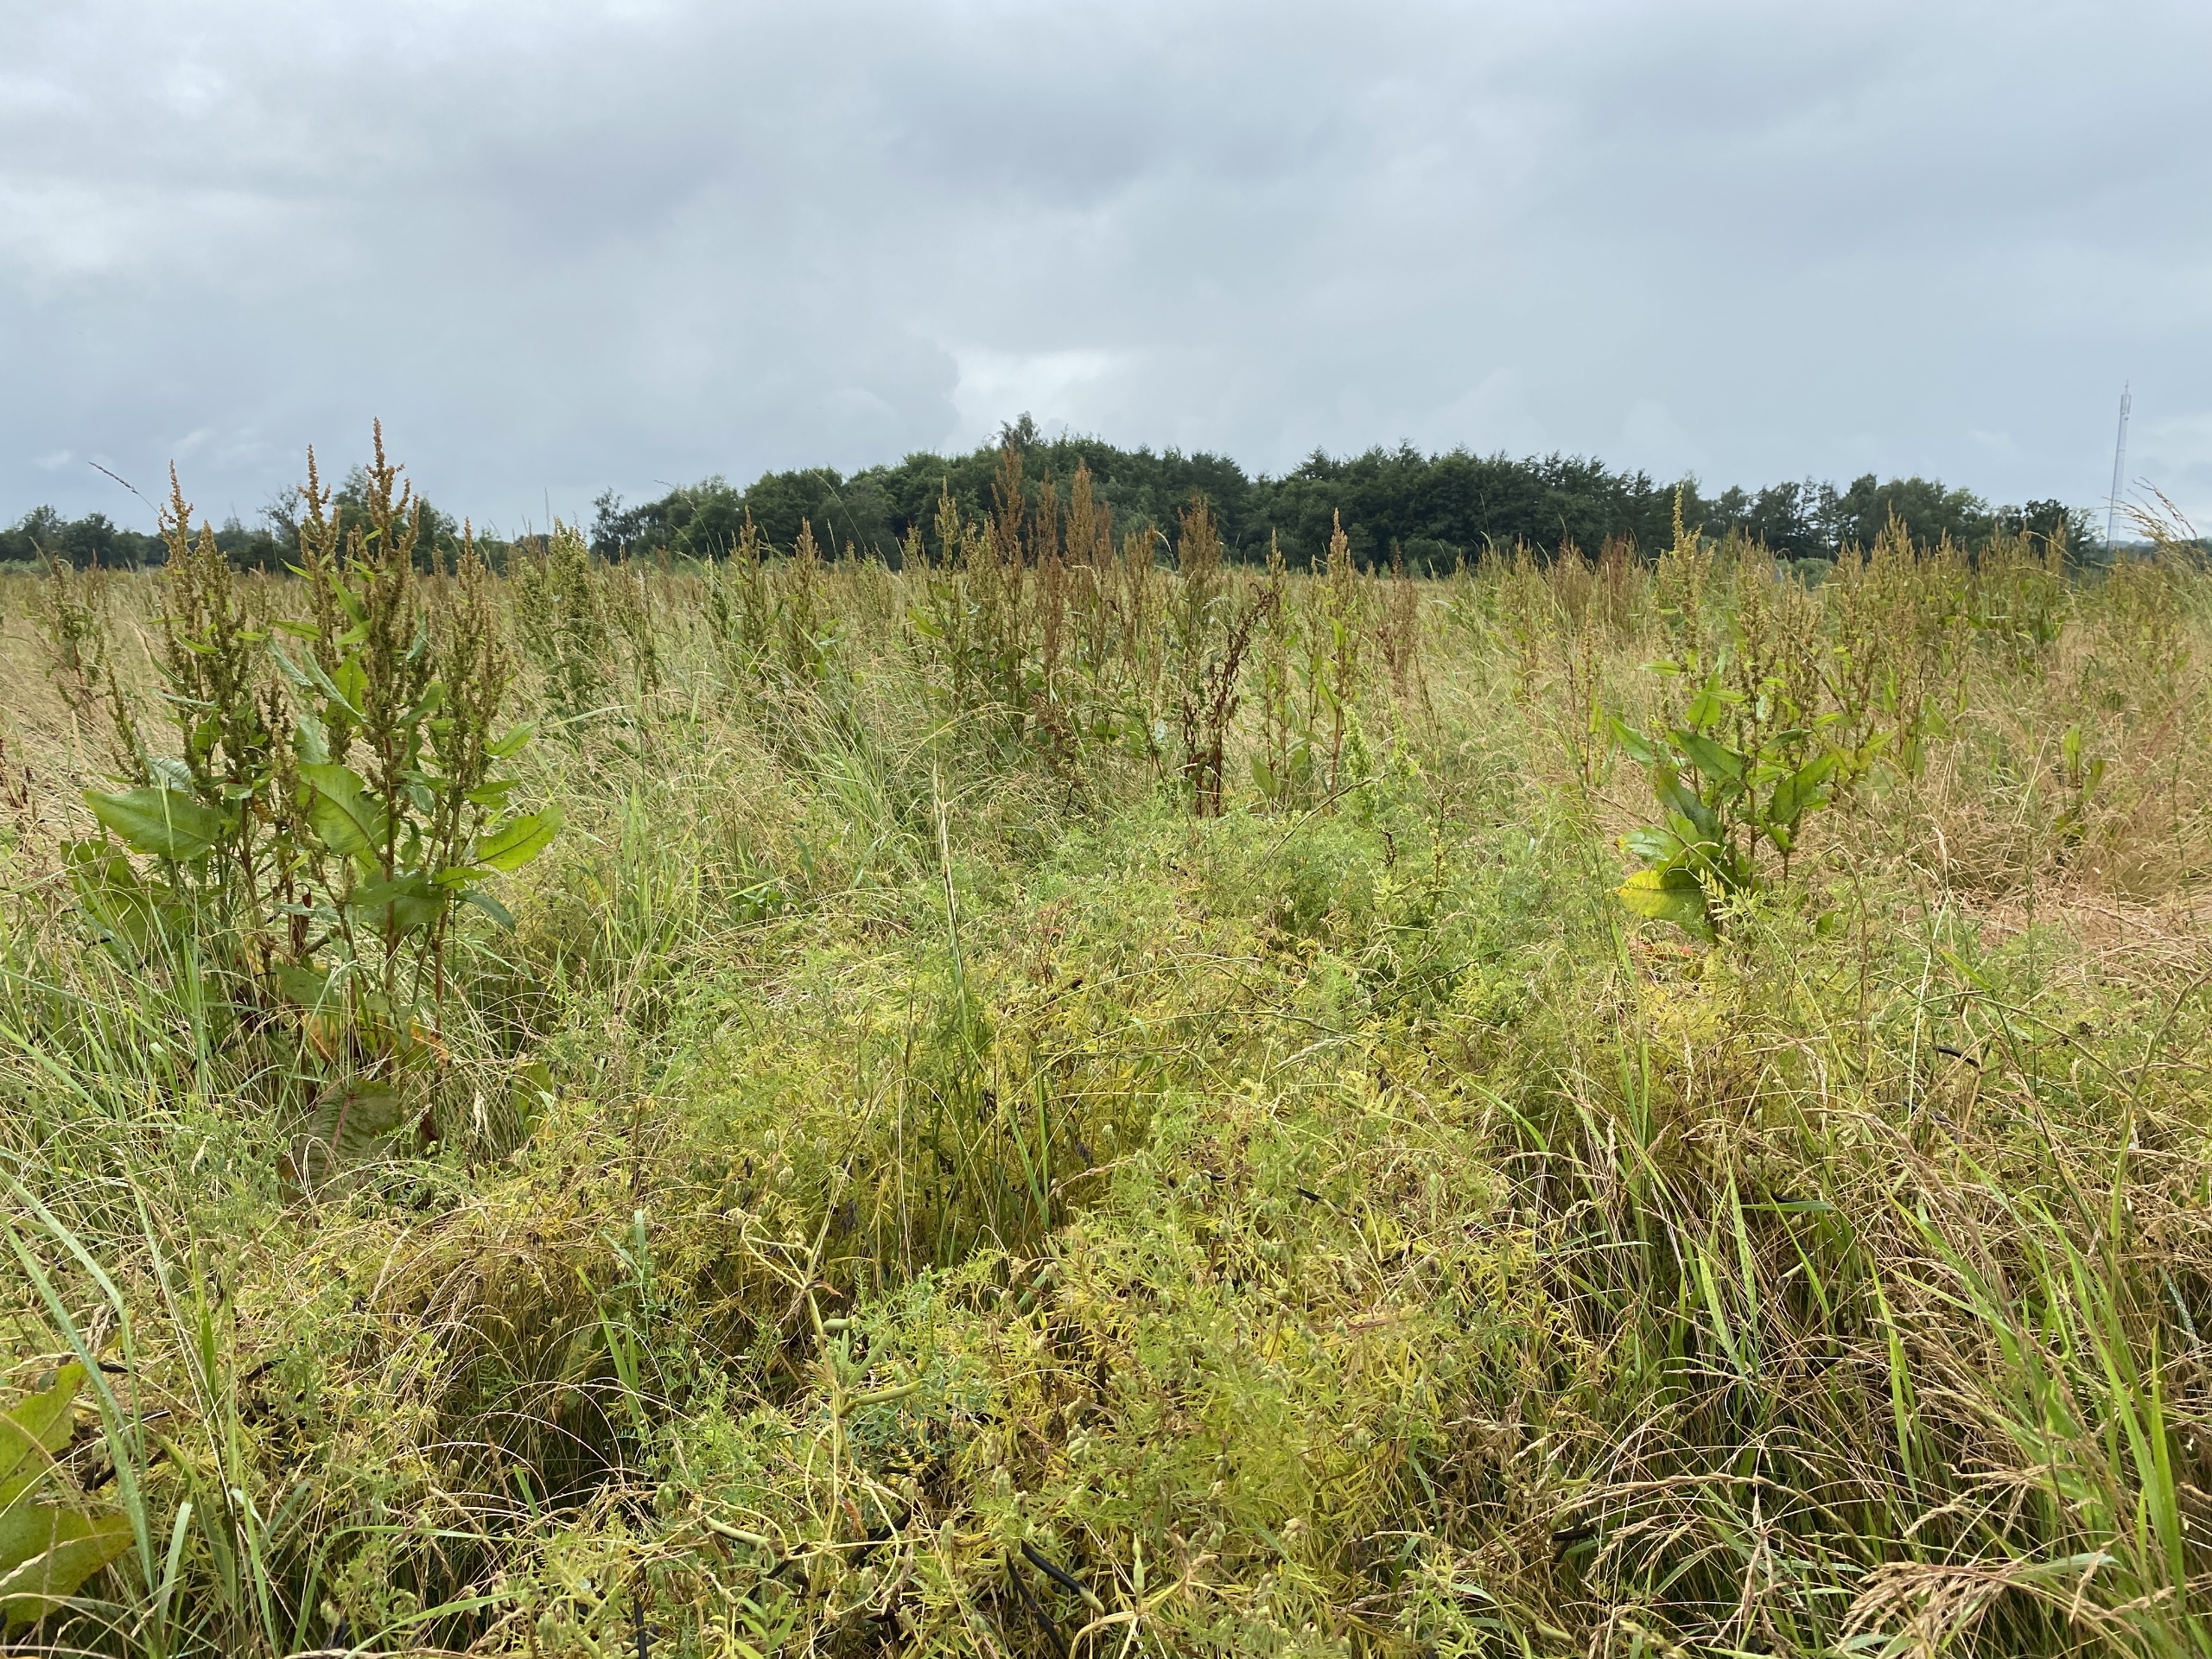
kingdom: Plantae
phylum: Tracheophyta
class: Magnoliopsida
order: Fabales
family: Fabaceae
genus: Vicia
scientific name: Vicia hirsuta
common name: Tofrøet vikke
